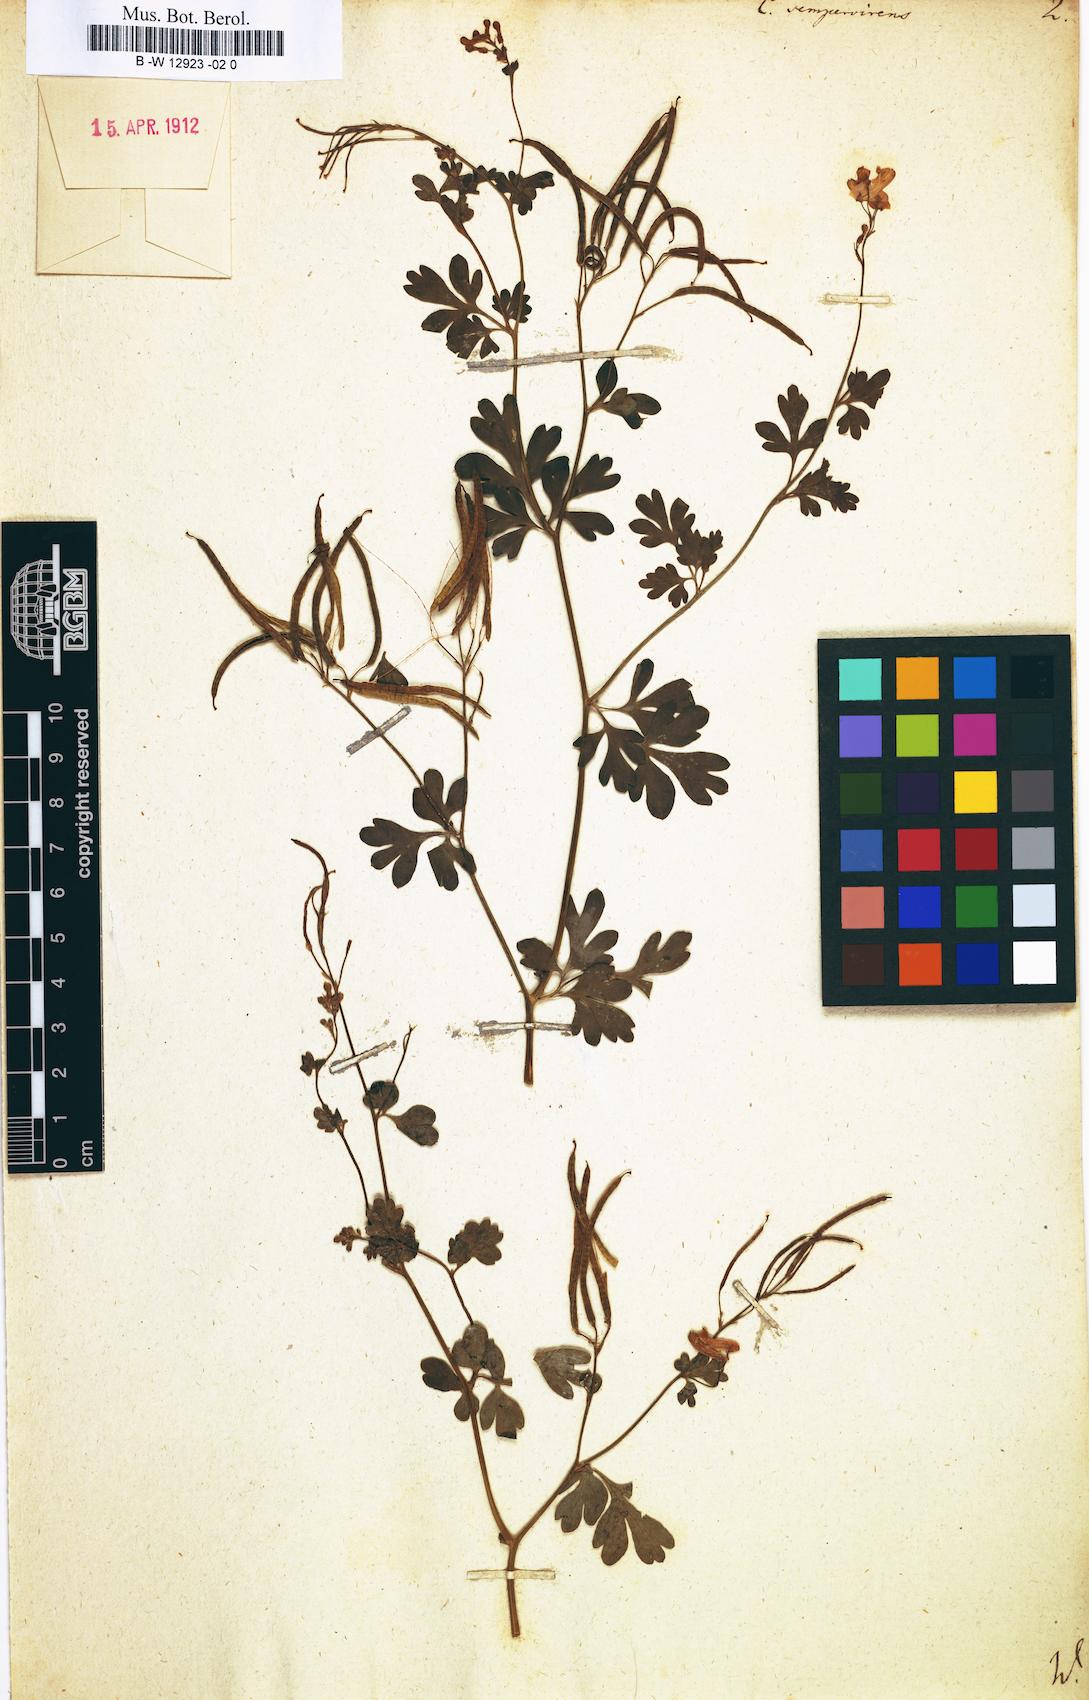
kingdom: Plantae
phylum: Tracheophyta
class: Magnoliopsida
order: Ranunculales
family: Papaveraceae
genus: Capnoides
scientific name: Capnoides sempervirens
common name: Rock harlequin
